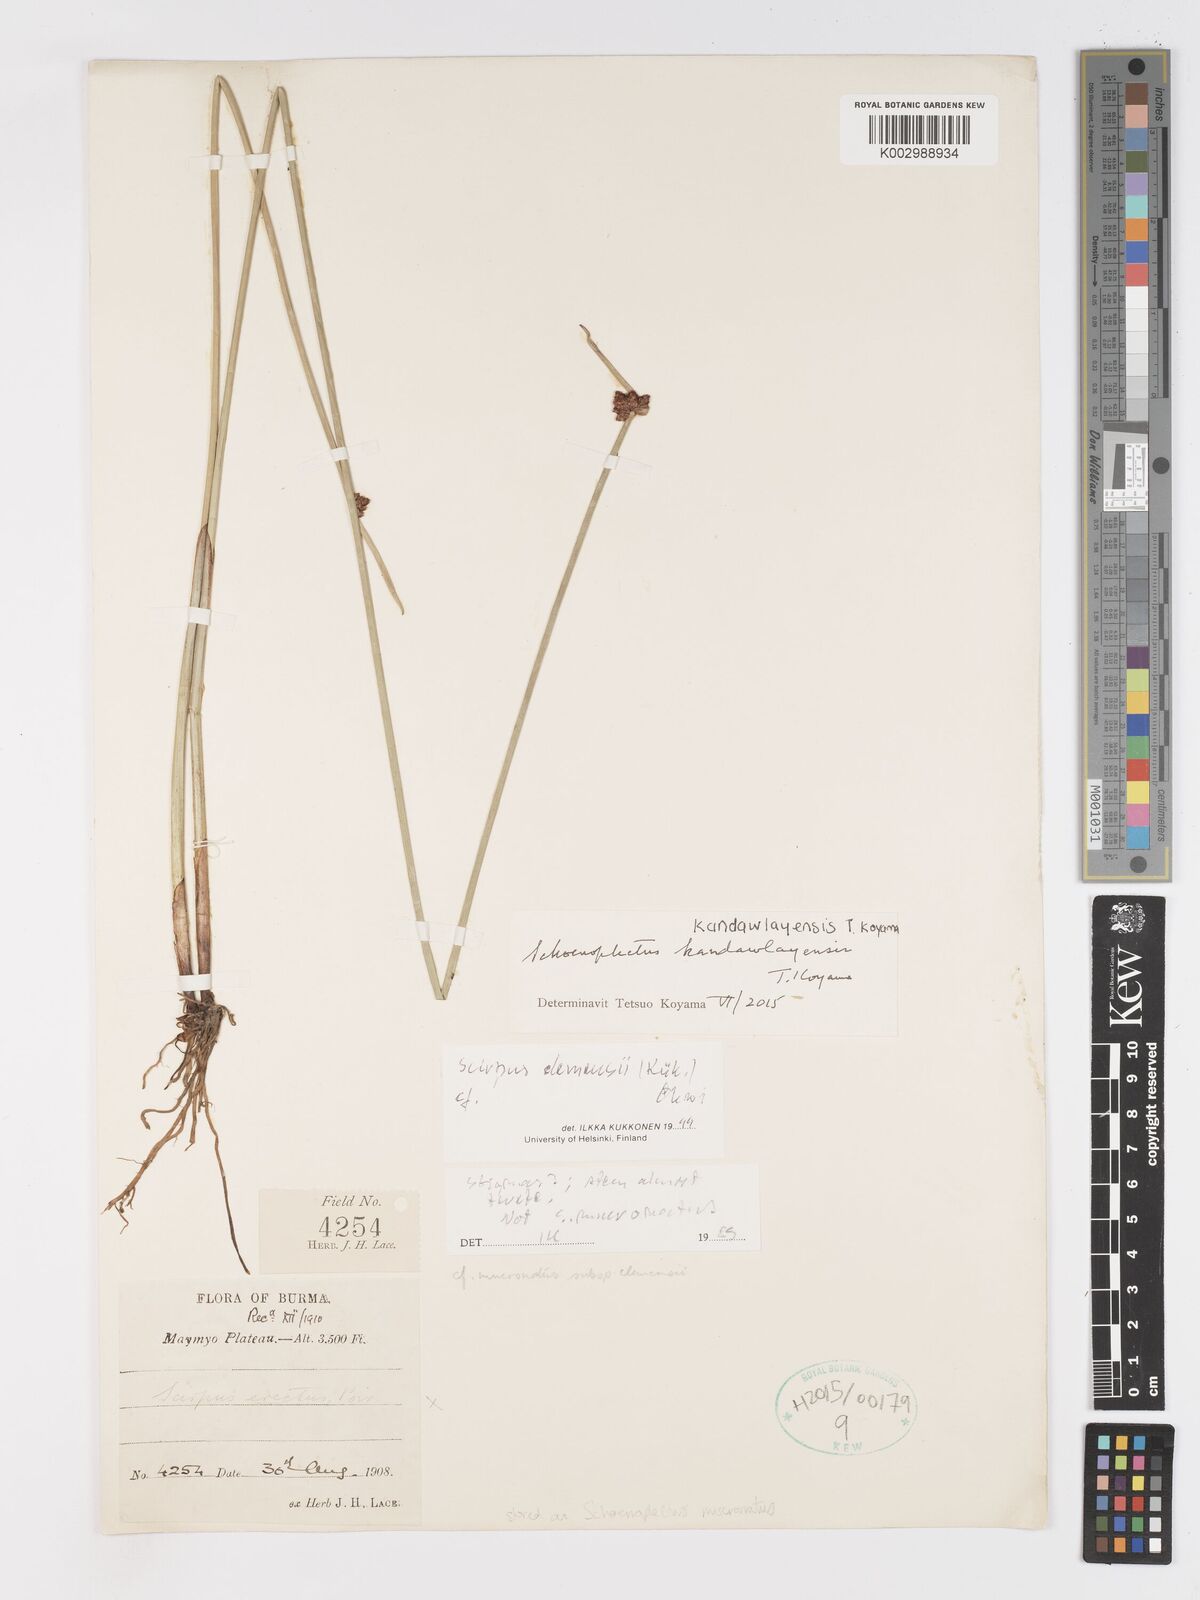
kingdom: Plantae
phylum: Tracheophyta
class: Liliopsida
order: Poales
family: Cyperaceae
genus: Schoenoplectiella
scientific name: Schoenoplectiella kandawlayensis
